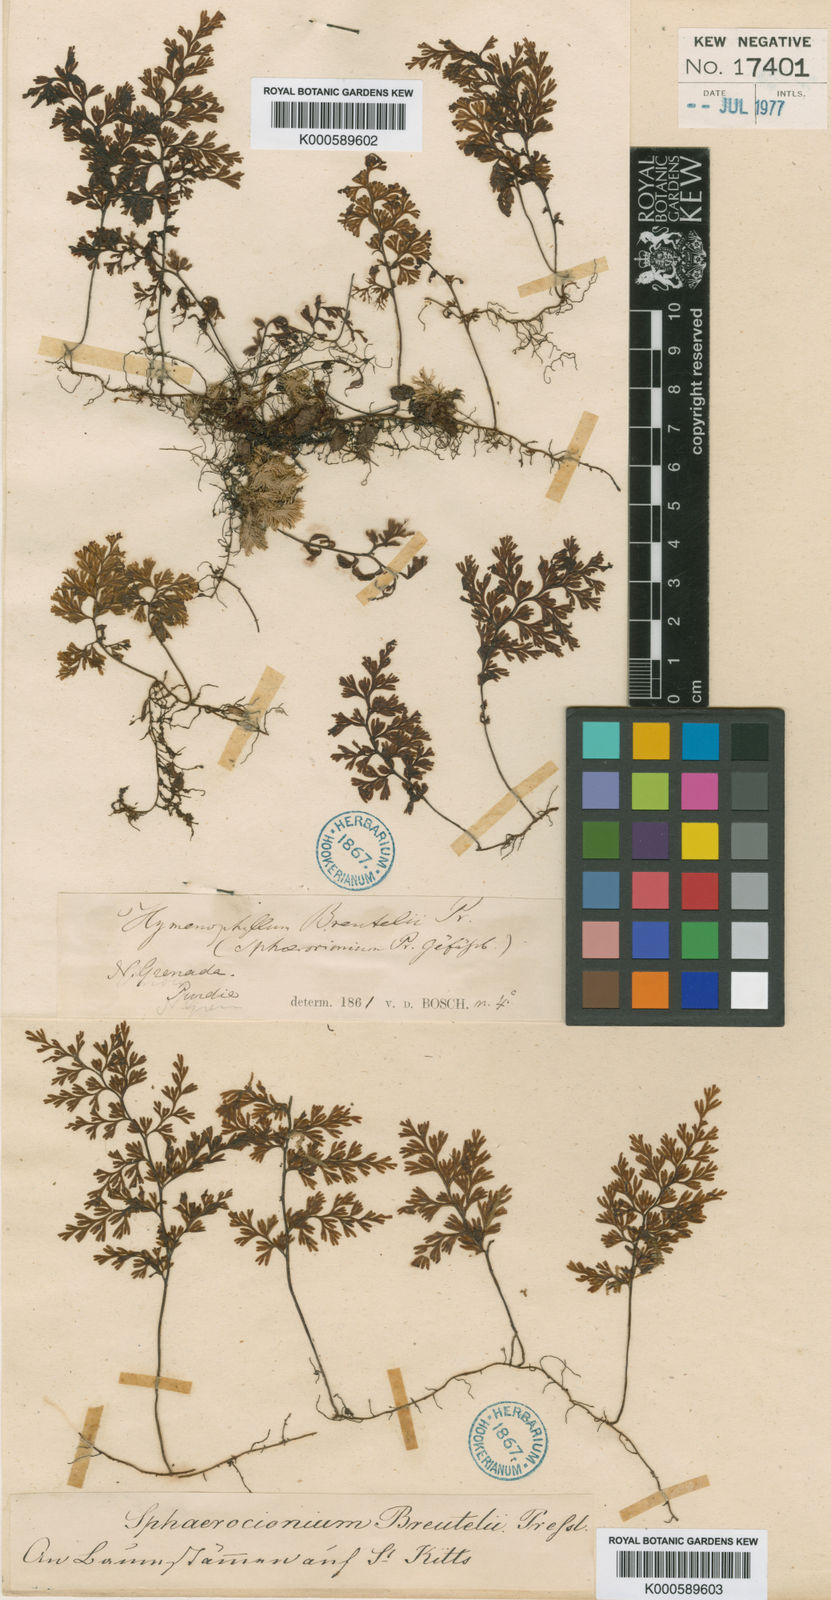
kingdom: Plantae
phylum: Tracheophyta
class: Polypodiopsida
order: Hymenophyllales
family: Hymenophyllaceae
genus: Hymenophyllum
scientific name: Hymenophyllum polyanthos
